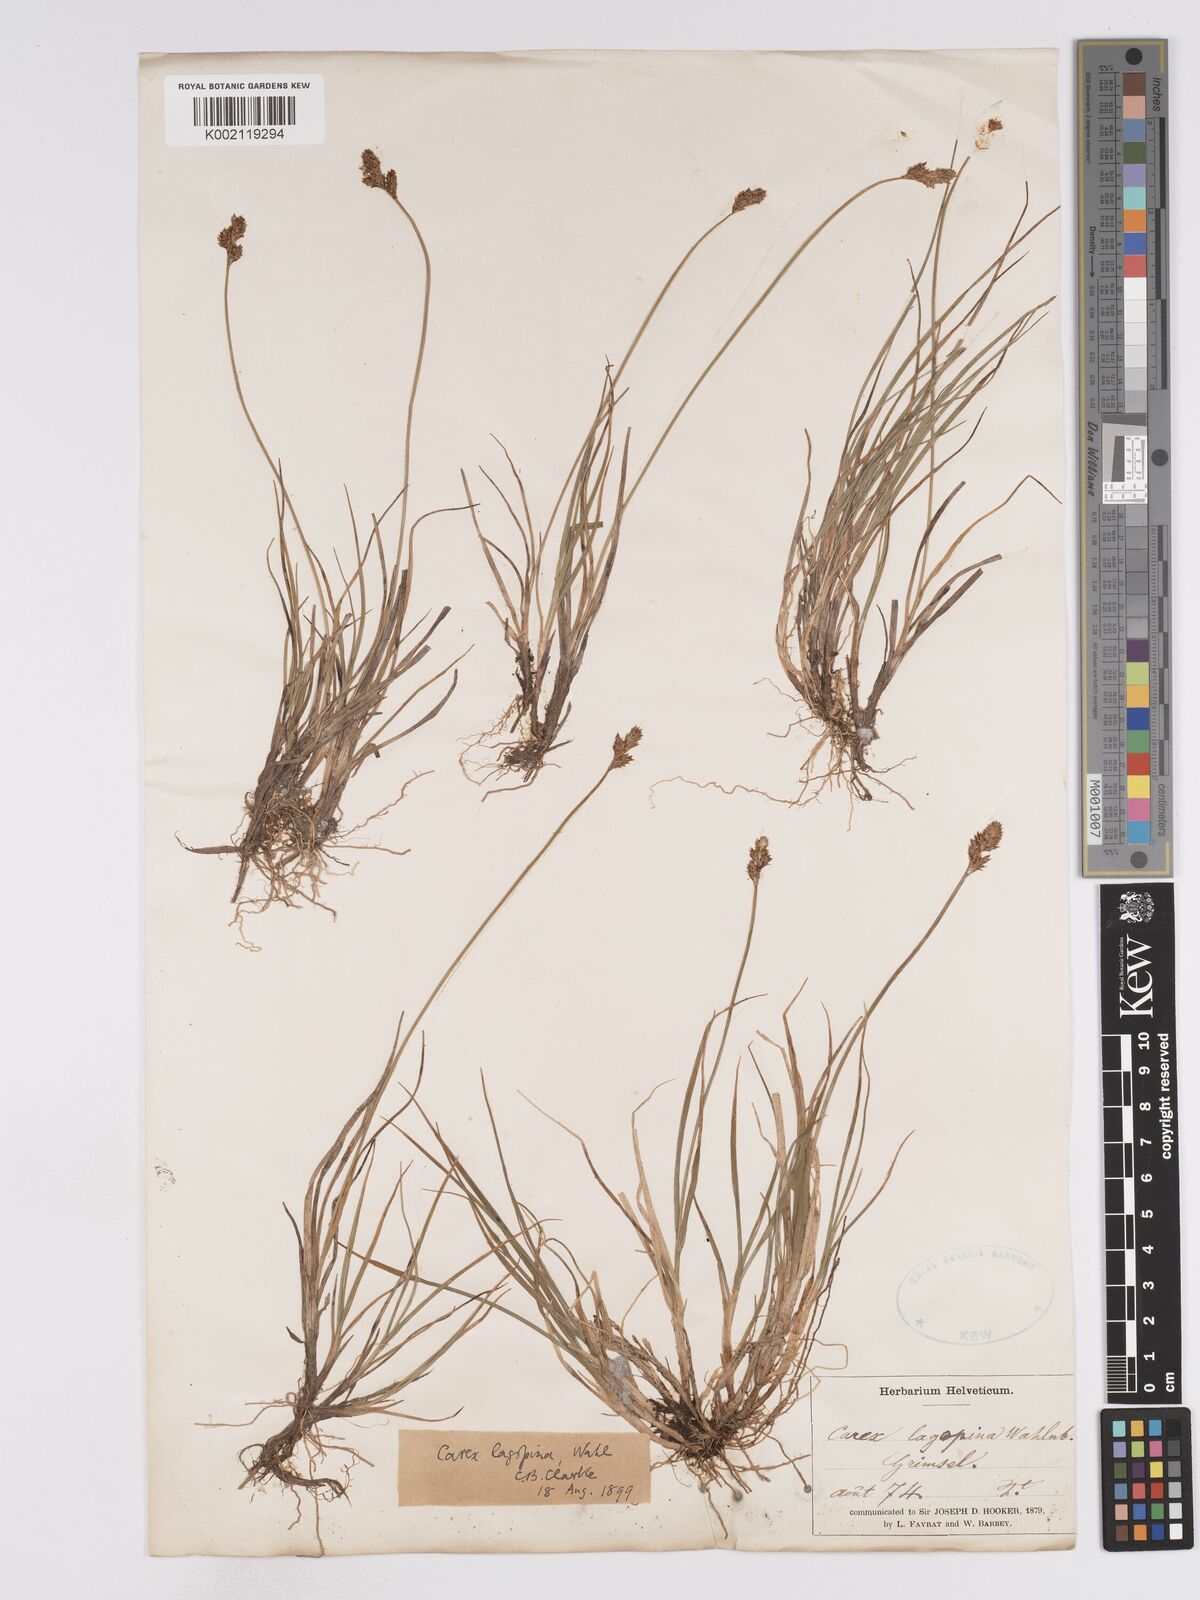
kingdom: Plantae
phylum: Tracheophyta
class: Liliopsida
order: Poales
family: Cyperaceae
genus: Carex
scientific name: Carex lachenalii
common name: Hare's-foot sedge
